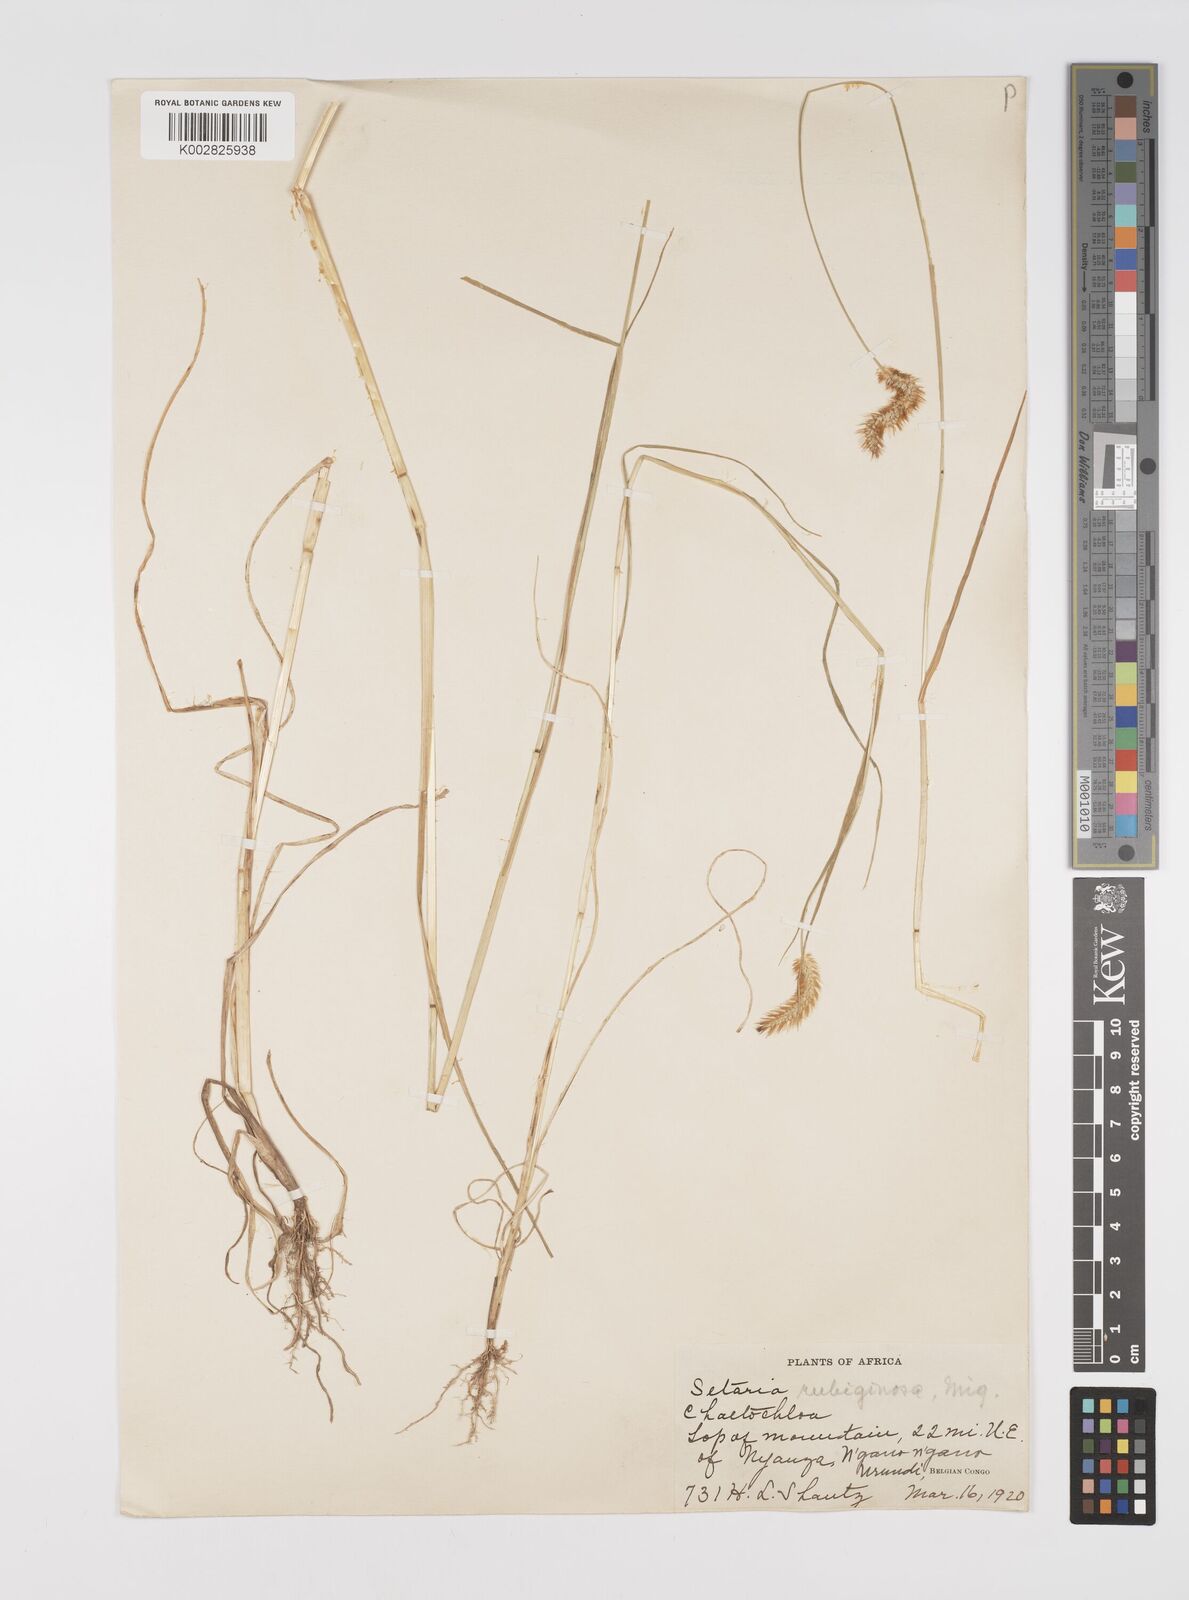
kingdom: Plantae
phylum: Tracheophyta
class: Liliopsida
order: Poales
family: Poaceae
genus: Setaria
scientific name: Setaria pumila
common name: Yellow bristle-grass
